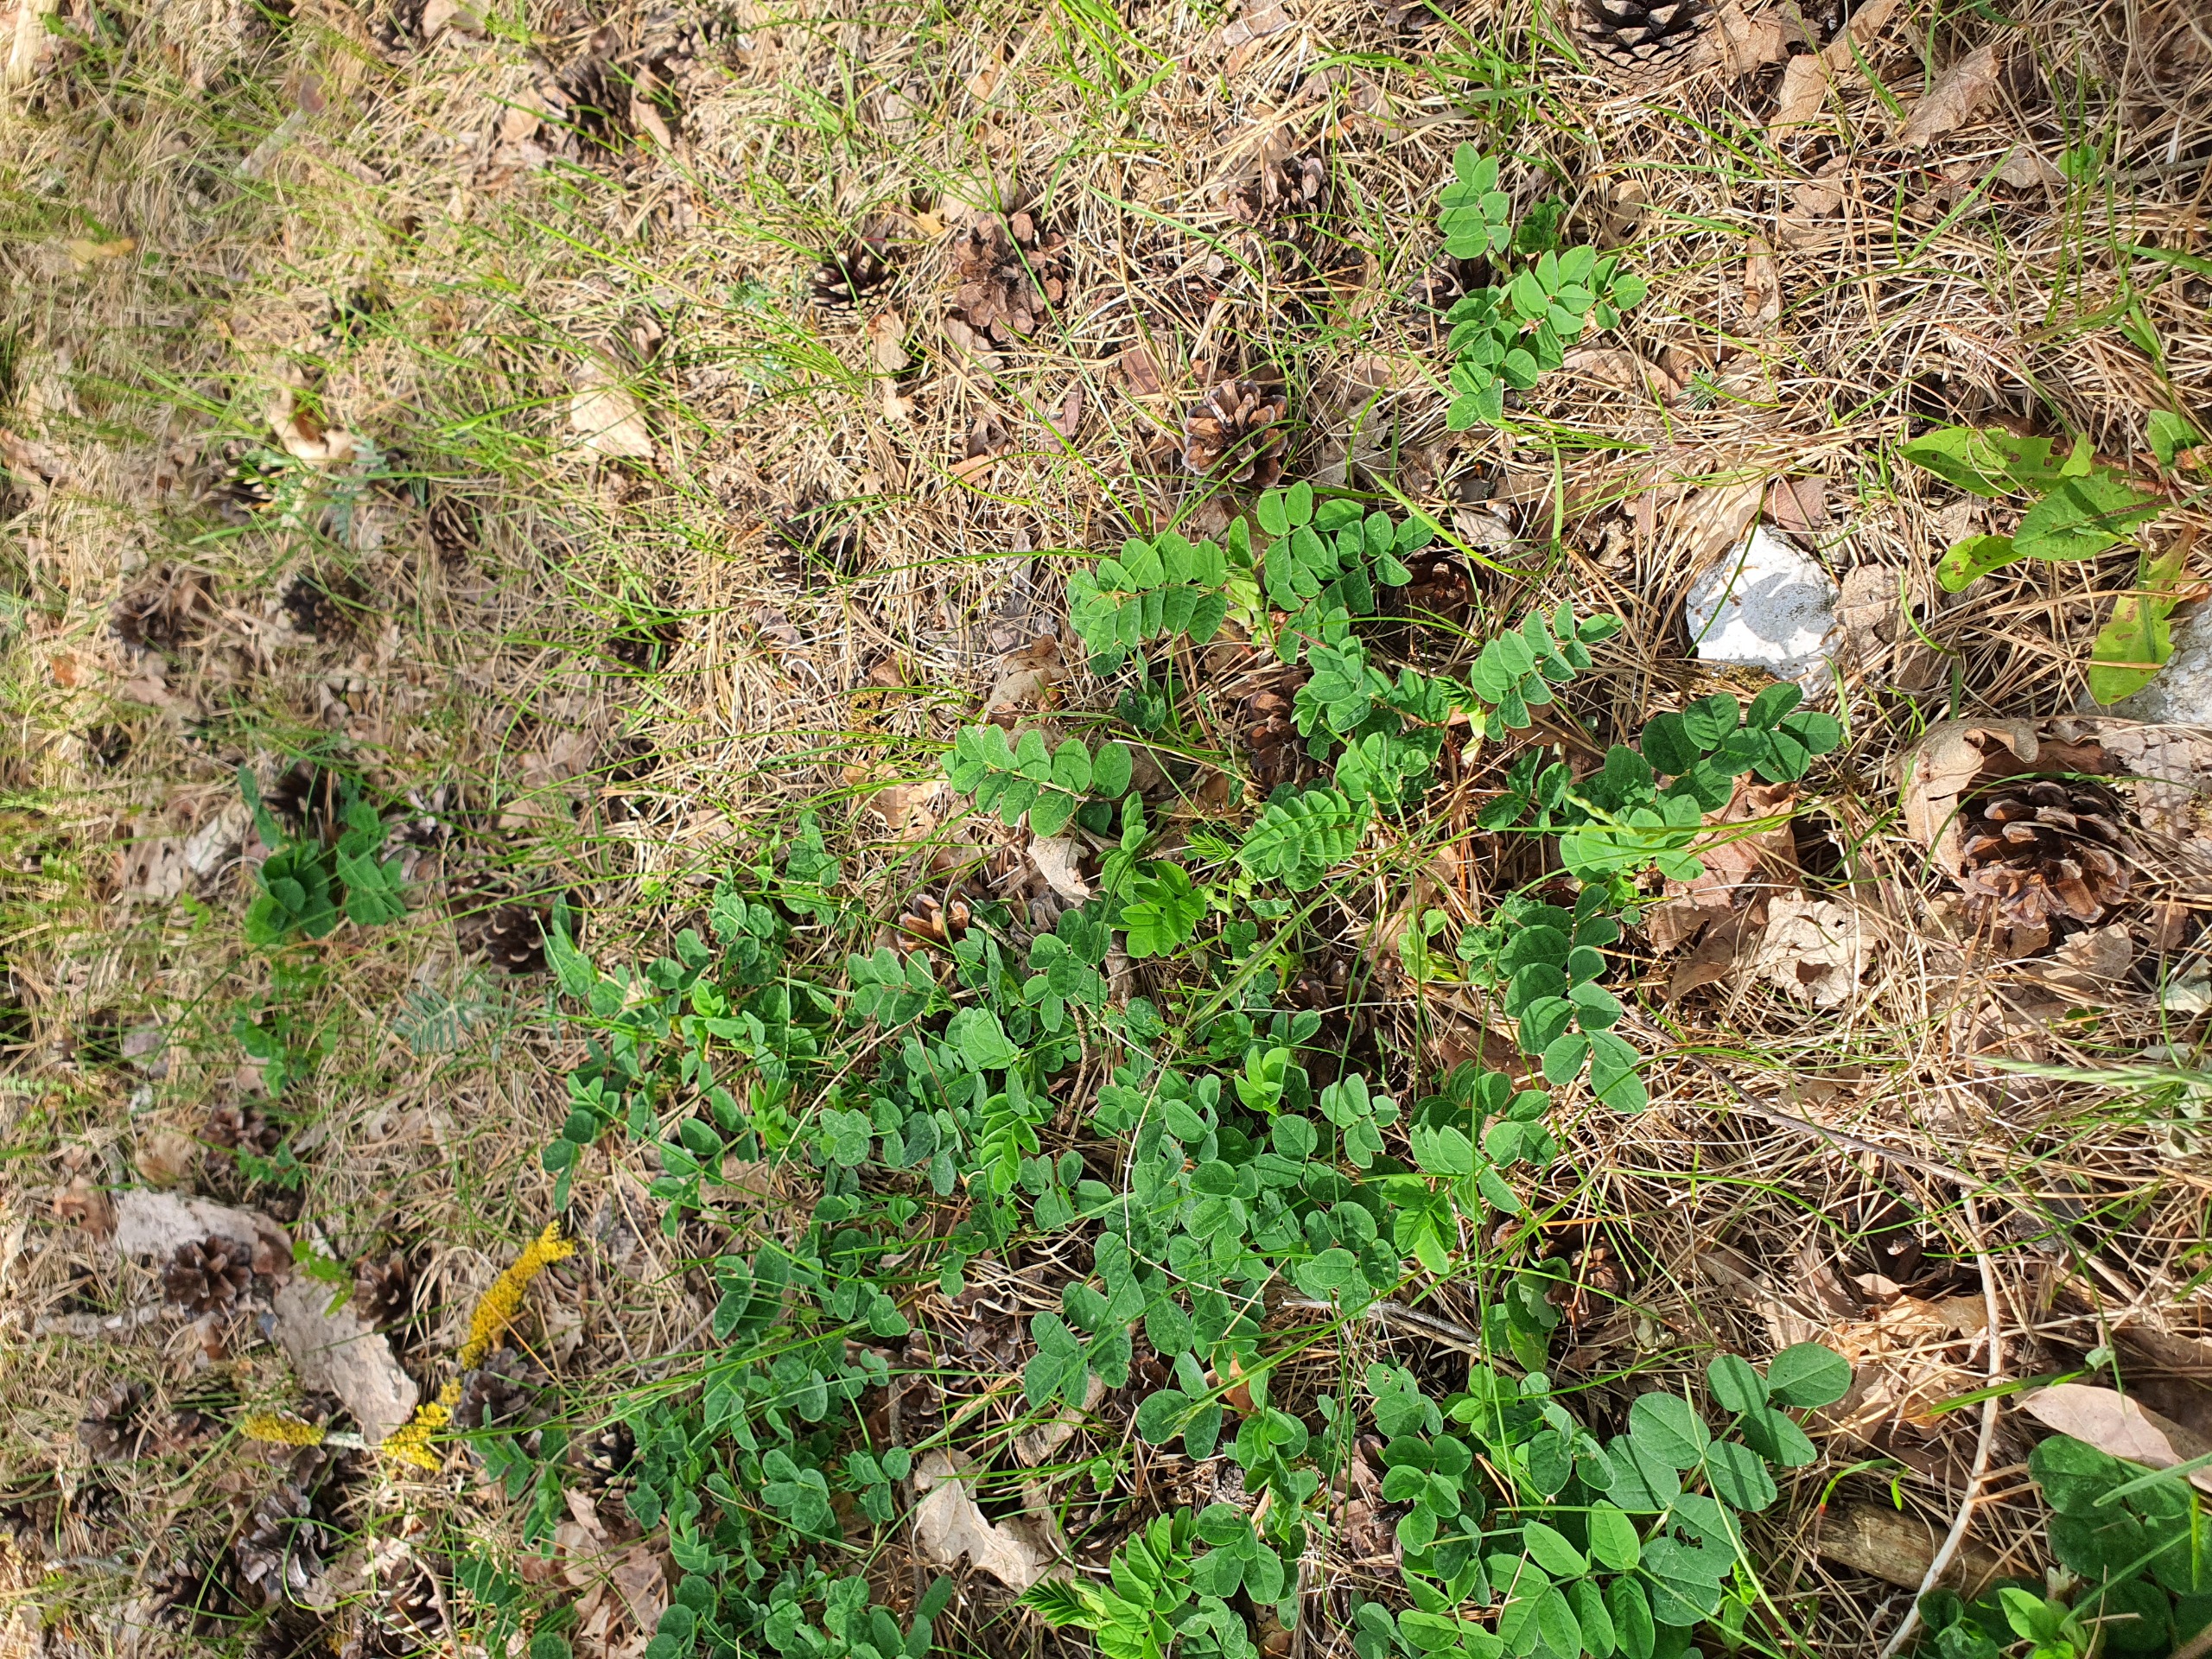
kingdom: Plantae
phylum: Tracheophyta
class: Magnoliopsida
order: Fabales
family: Fabaceae
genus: Astragalus
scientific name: Astragalus glycyphyllos
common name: Sød astragel
